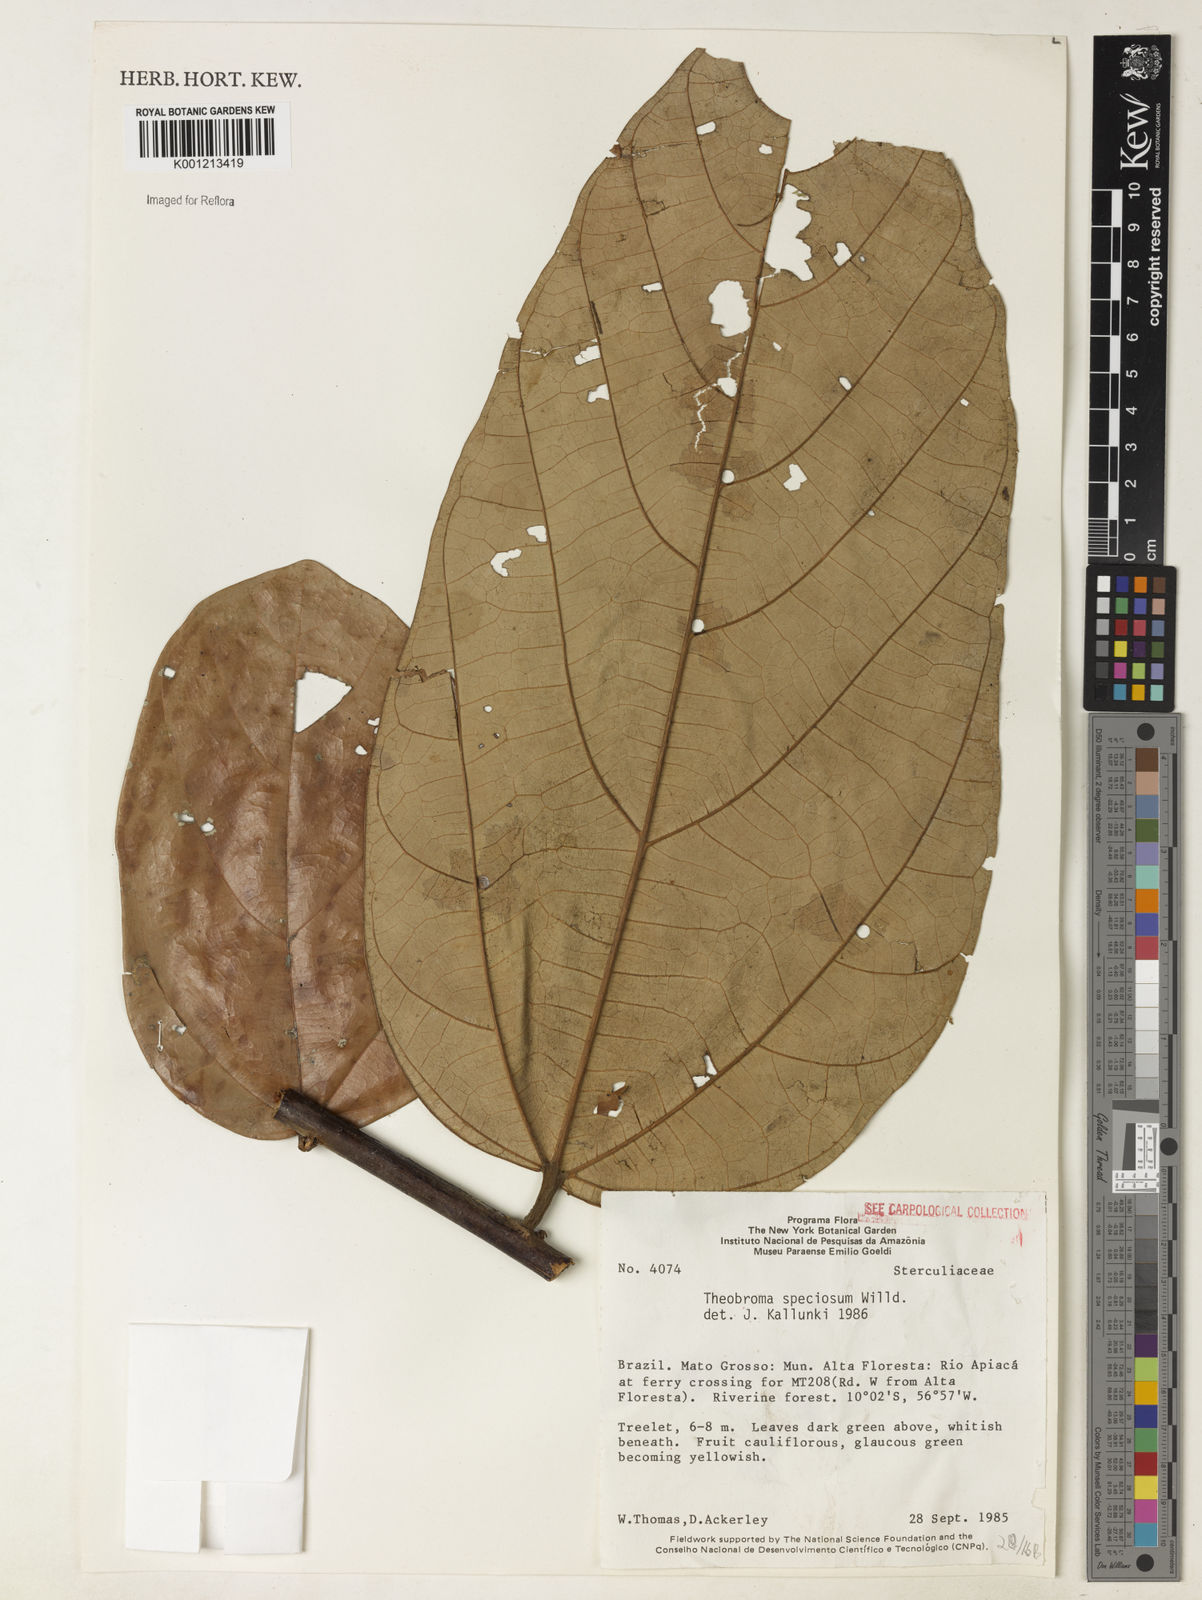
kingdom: Plantae
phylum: Tracheophyta
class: Magnoliopsida
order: Malvales
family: Malvaceae
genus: Theobroma
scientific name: Theobroma speciosum
